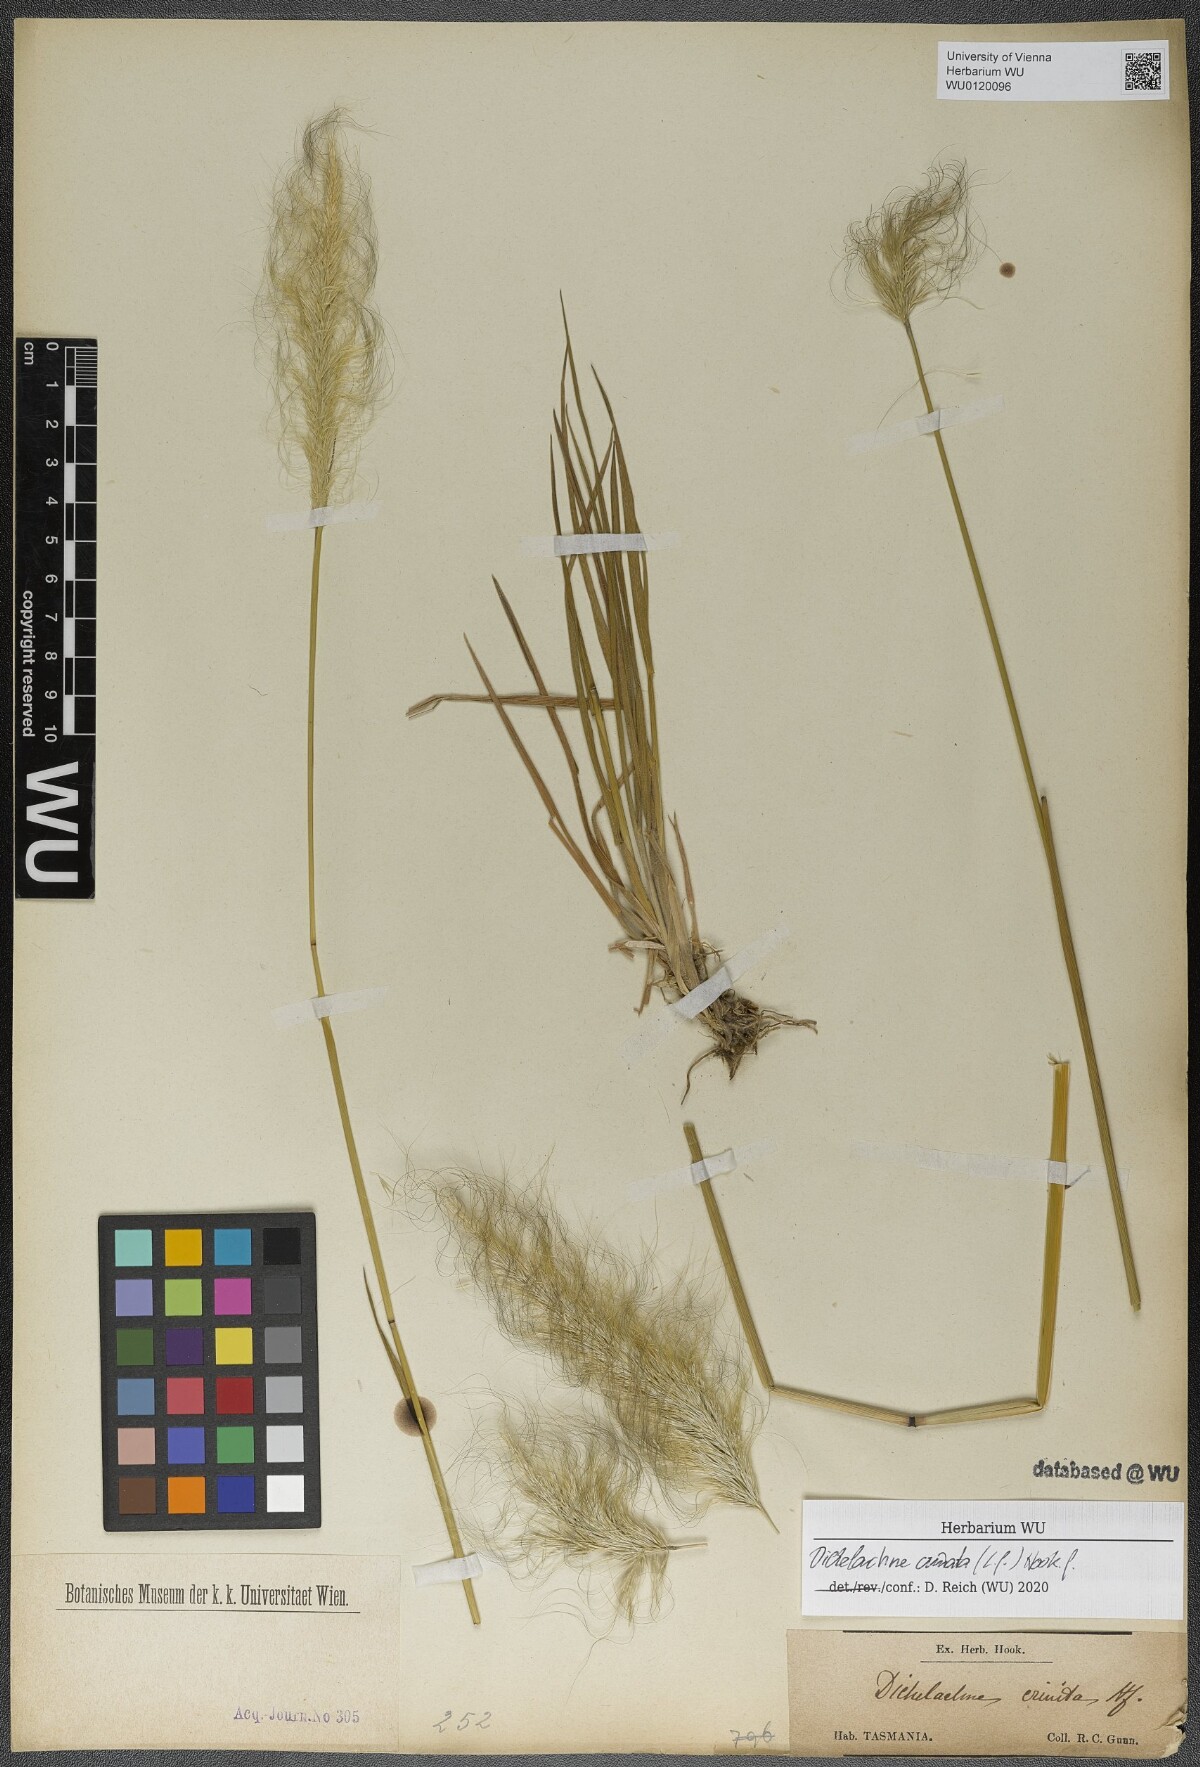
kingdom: Plantae
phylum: Tracheophyta
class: Liliopsida
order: Poales
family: Poaceae
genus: Dichelachne
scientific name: Dichelachne crinita
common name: Clovenfoot plumegrass
